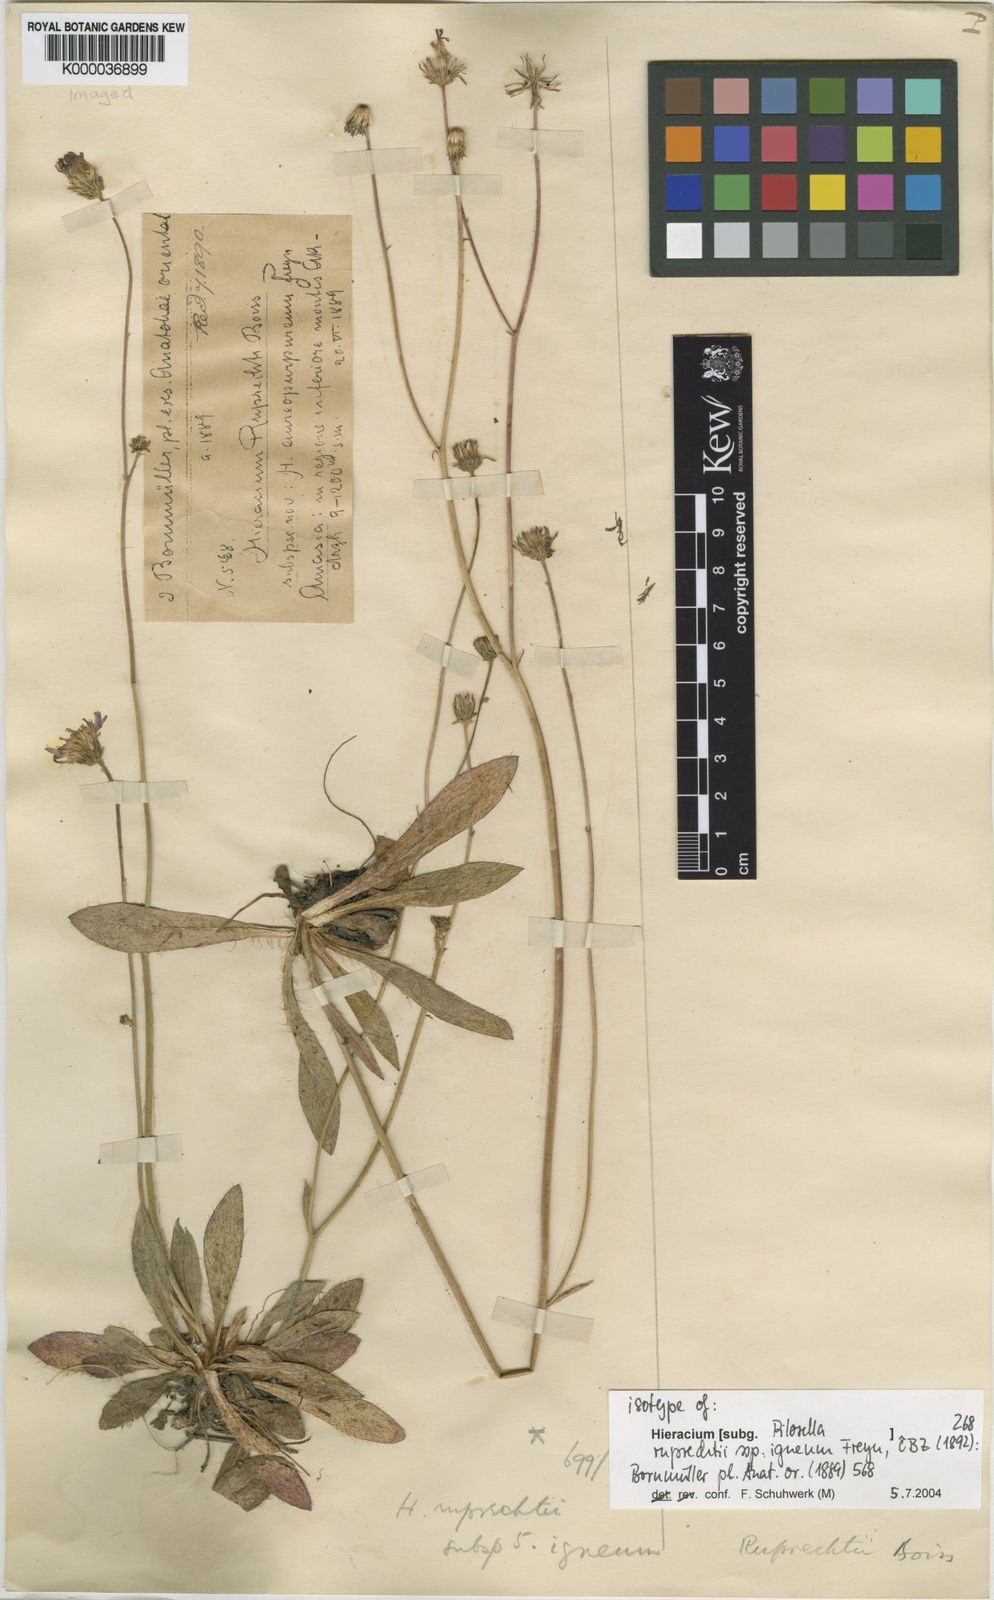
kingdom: Plantae
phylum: Tracheophyta
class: Magnoliopsida
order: Asterales
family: Asteraceae
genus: Pilosella
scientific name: Pilosella ruprechtii
